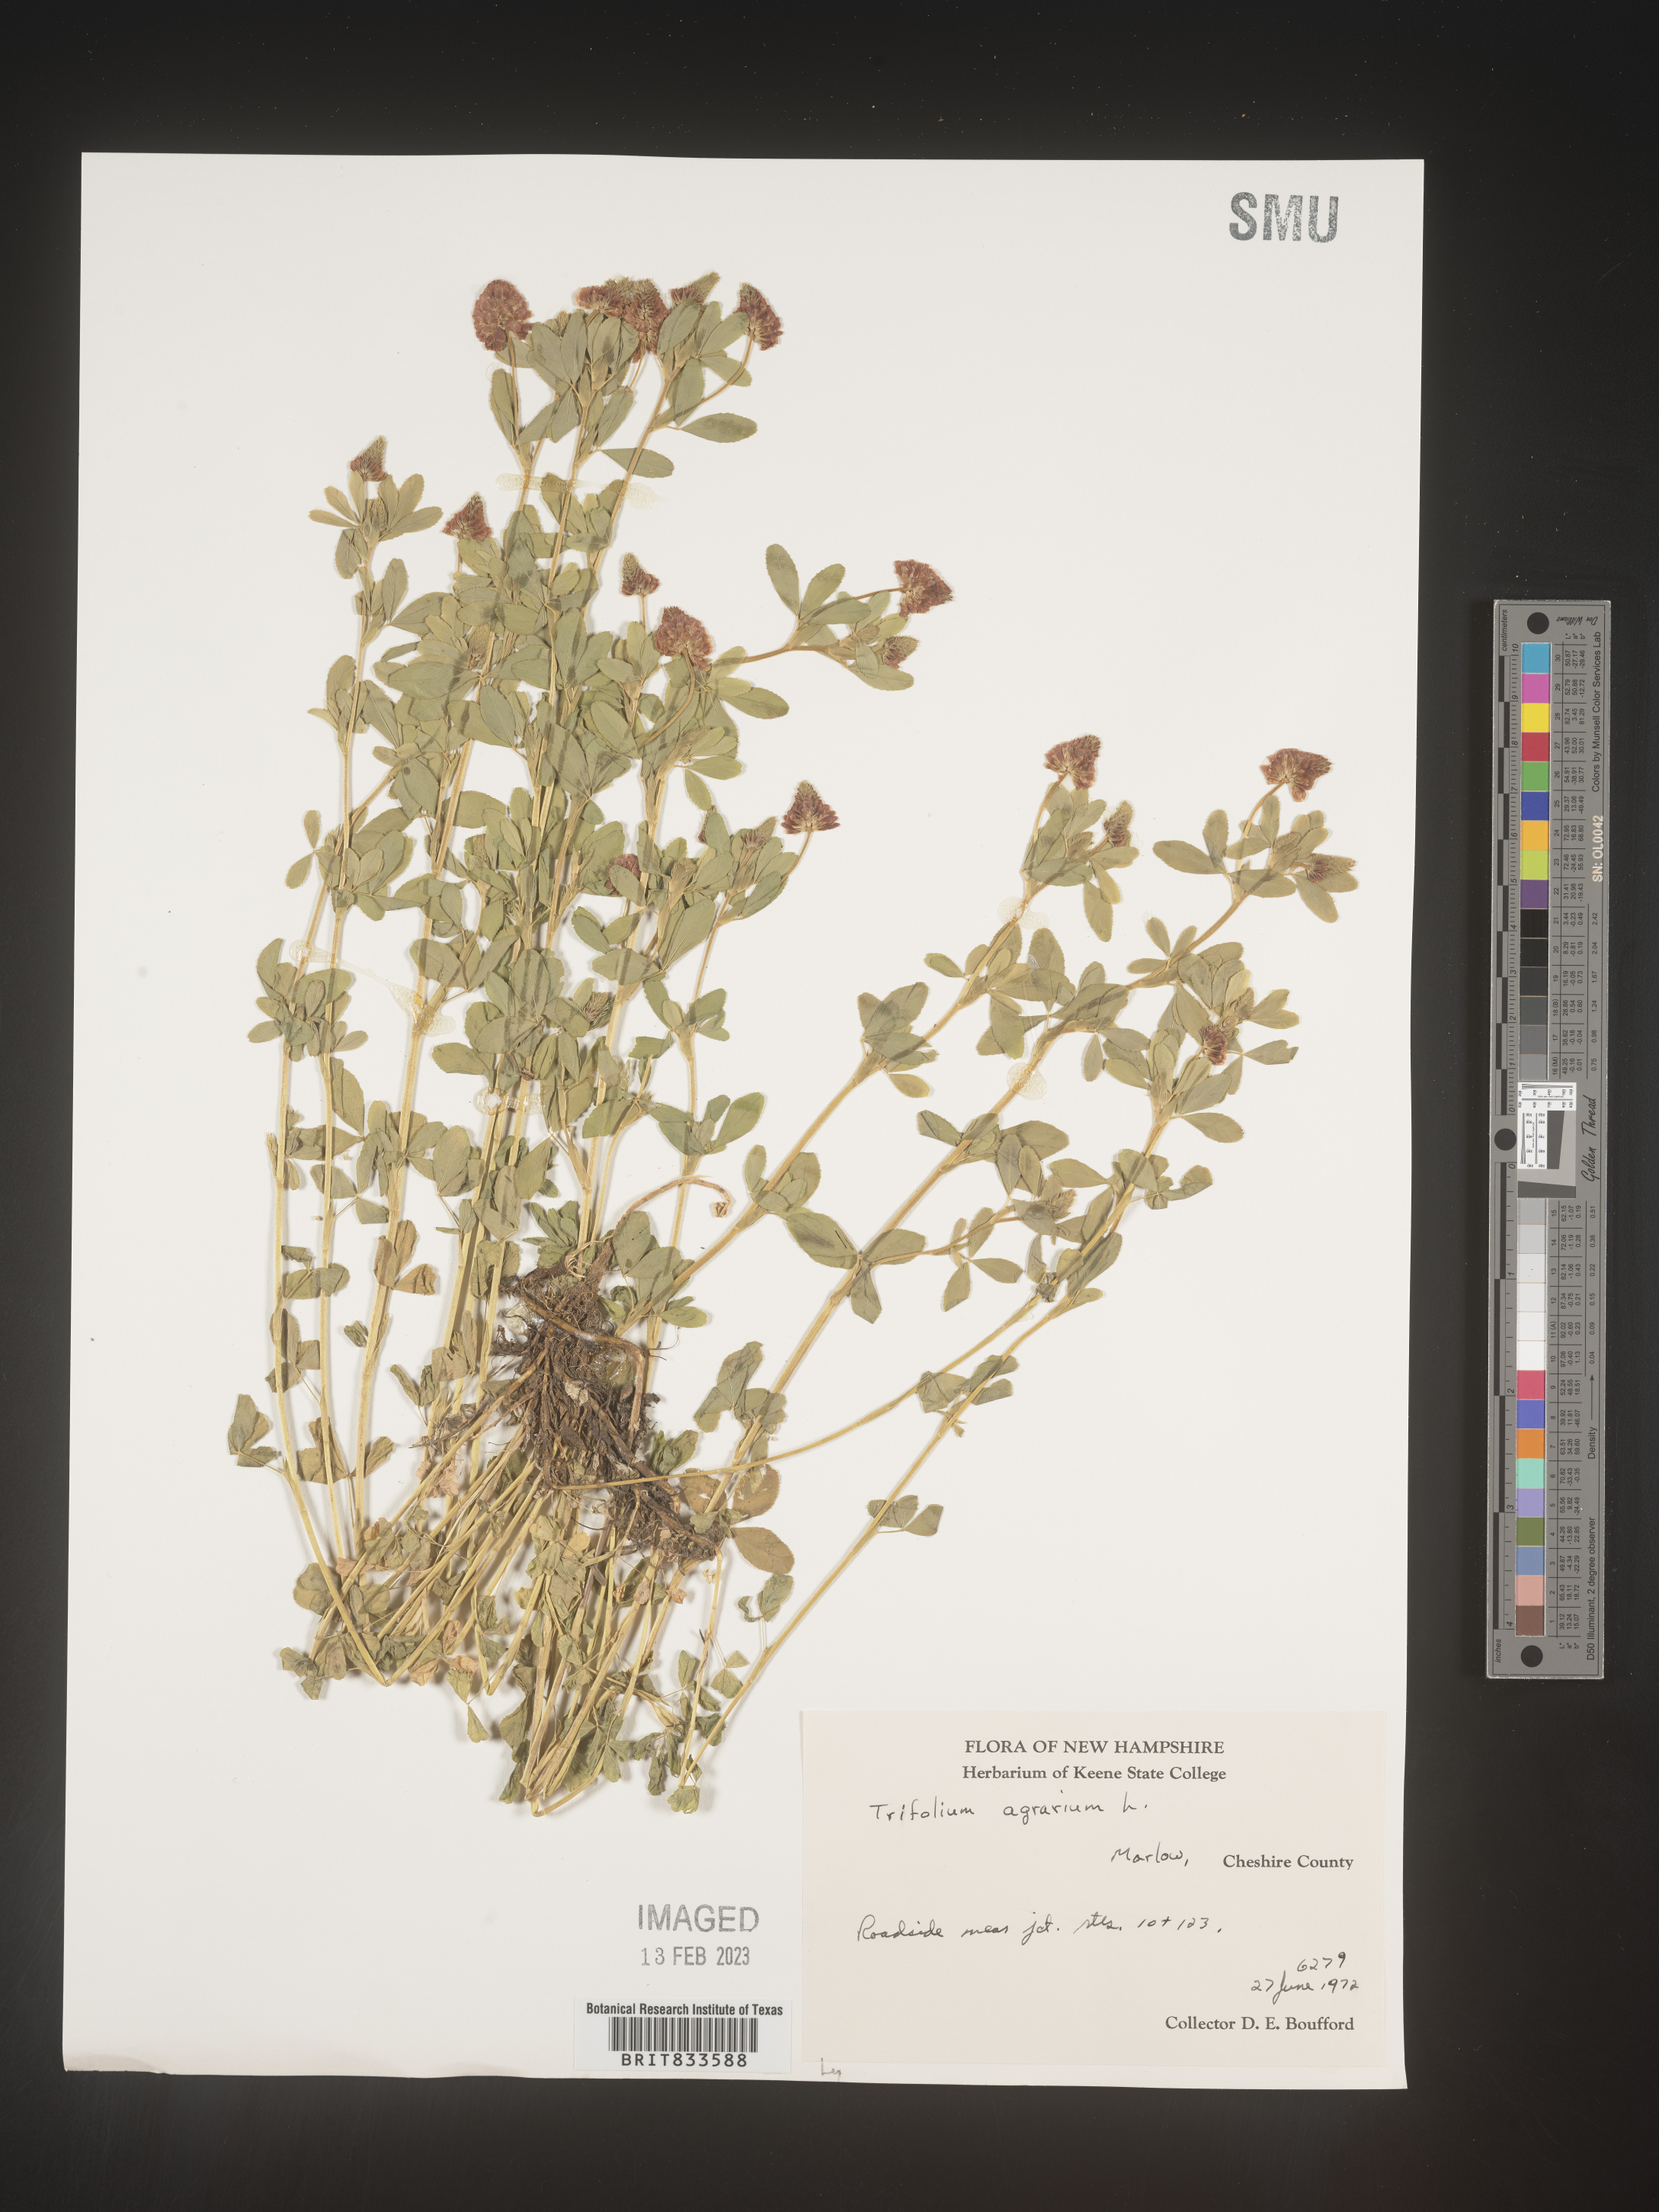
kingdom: Plantae
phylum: Tracheophyta
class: Magnoliopsida
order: Fabales
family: Fabaceae
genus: Trifolium
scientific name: Trifolium agrarium
